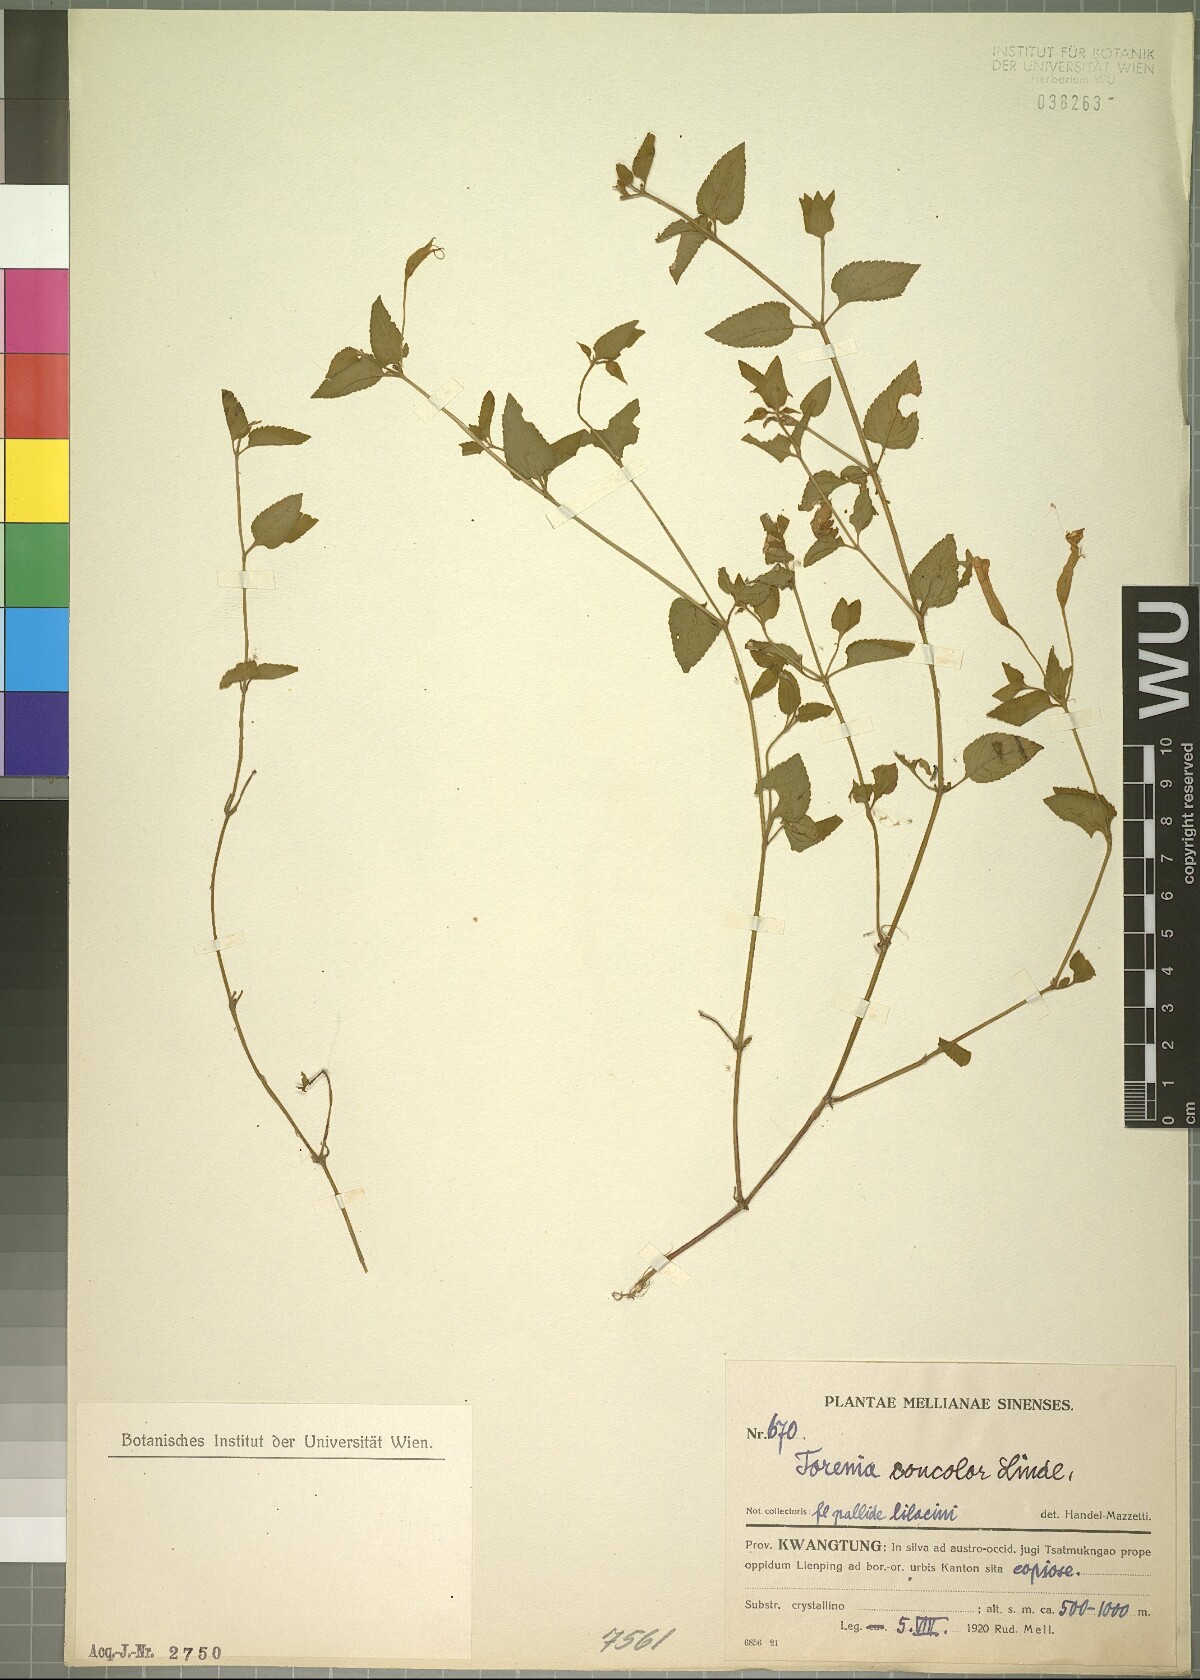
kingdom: Plantae
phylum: Tracheophyta
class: Magnoliopsida
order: Lamiales
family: Linderniaceae
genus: Torenia
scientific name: Torenia concolor
